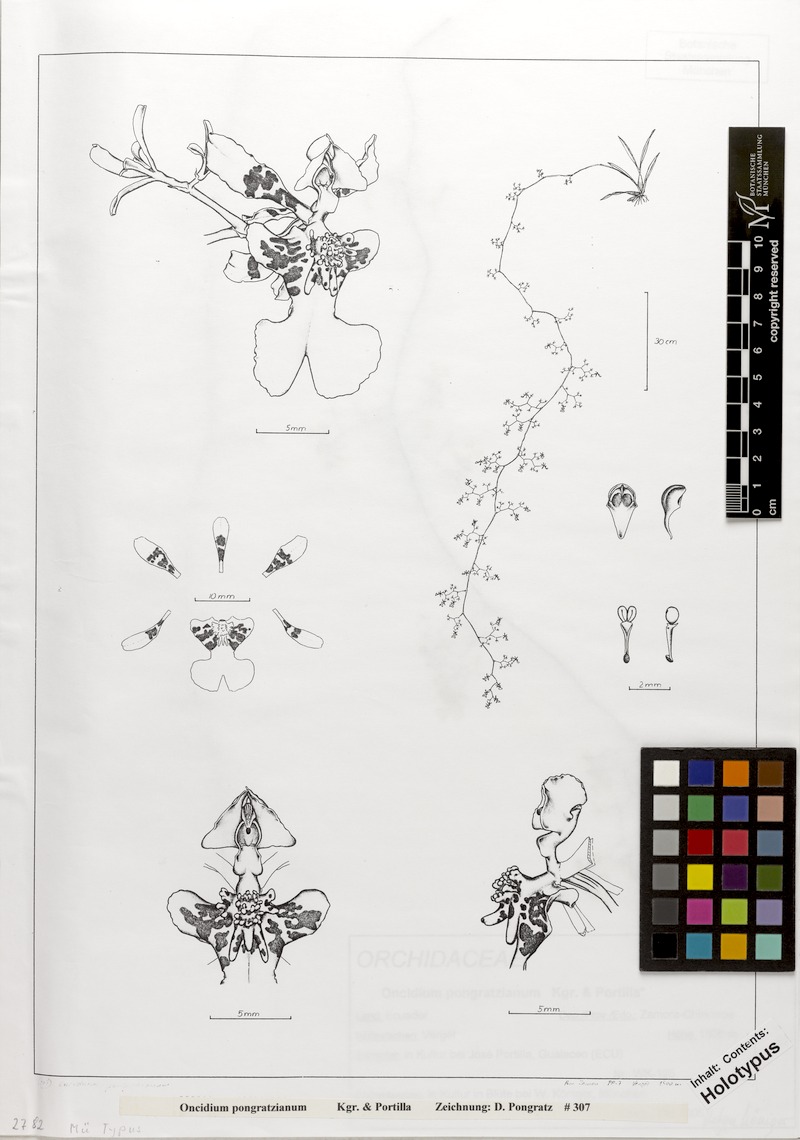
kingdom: Plantae
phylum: Tracheophyta
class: Liliopsida
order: Asparagales
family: Orchidaceae
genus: Oncidium
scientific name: Oncidium pongratzianum
